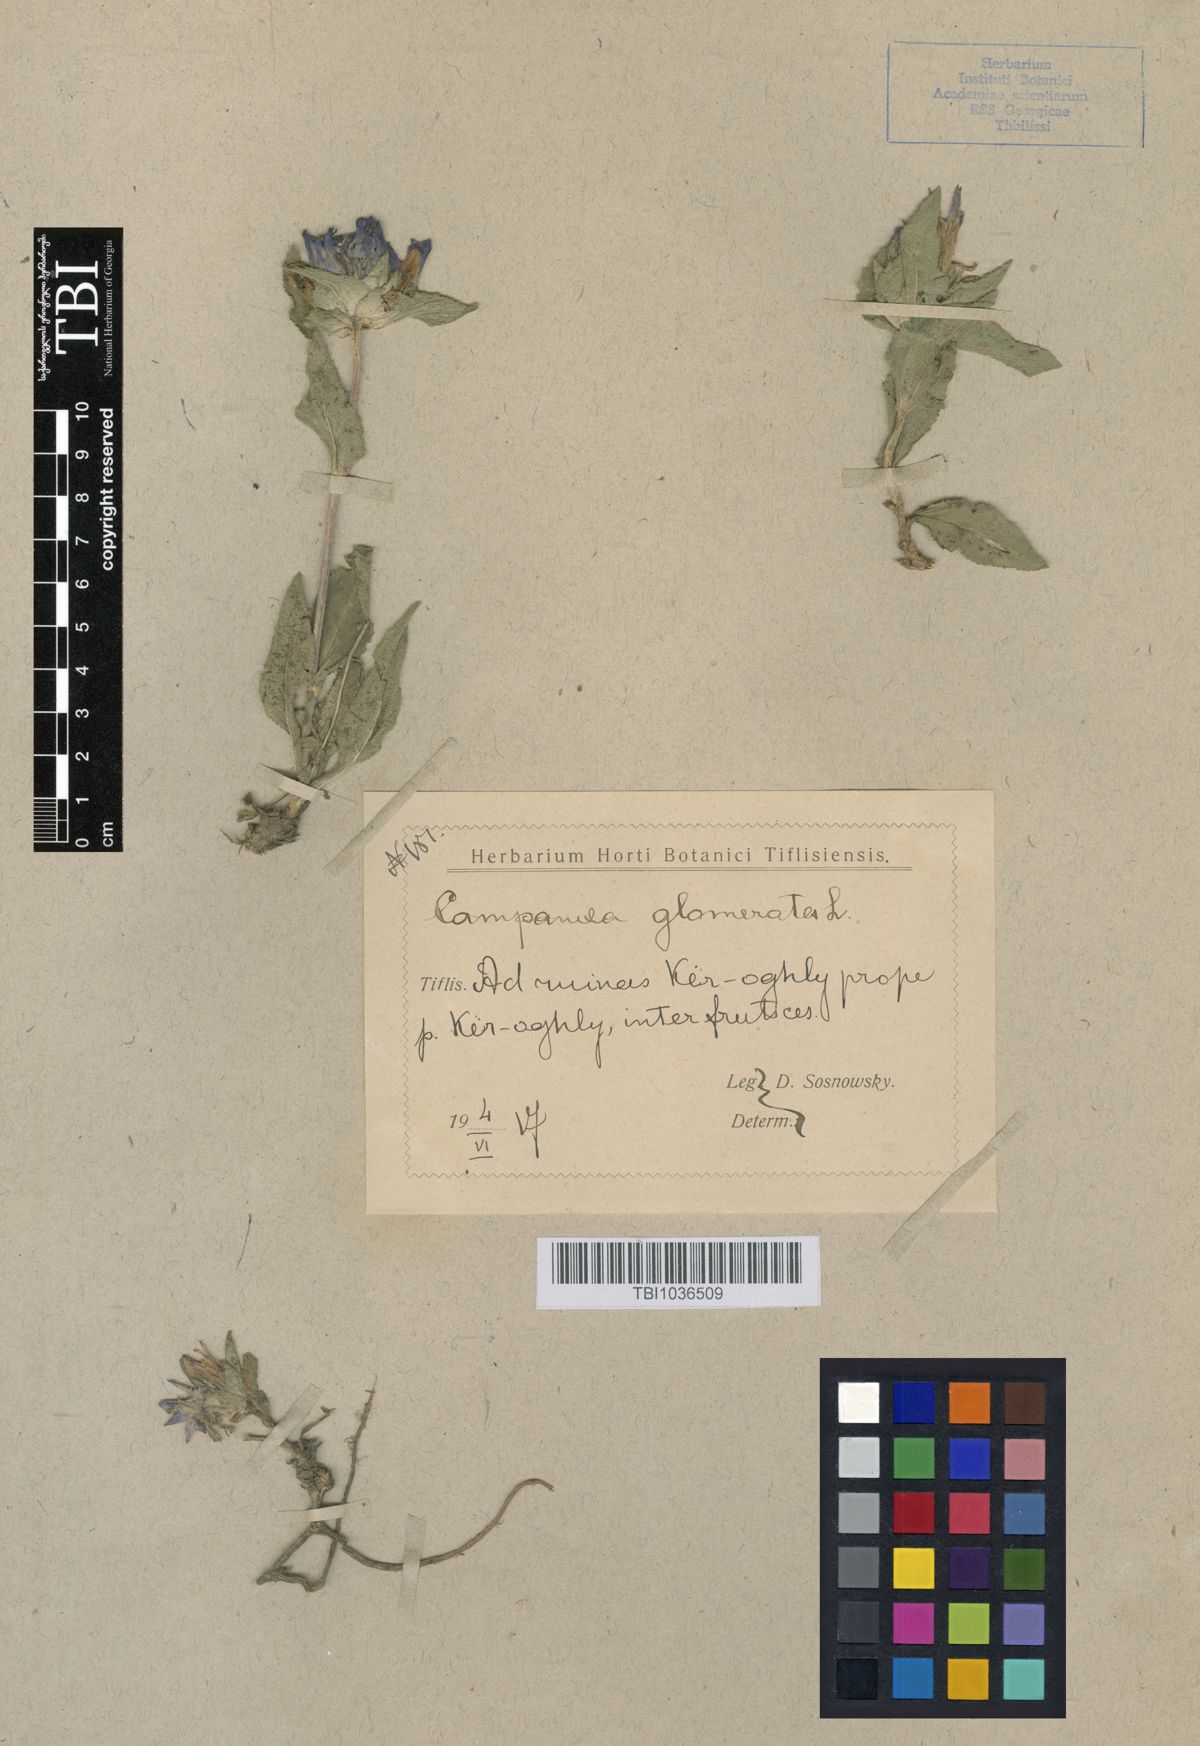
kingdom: Plantae
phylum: Tracheophyta
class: Magnoliopsida
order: Asterales
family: Campanulaceae
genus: Campanula
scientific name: Campanula glomerata
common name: Clustered bellflower
